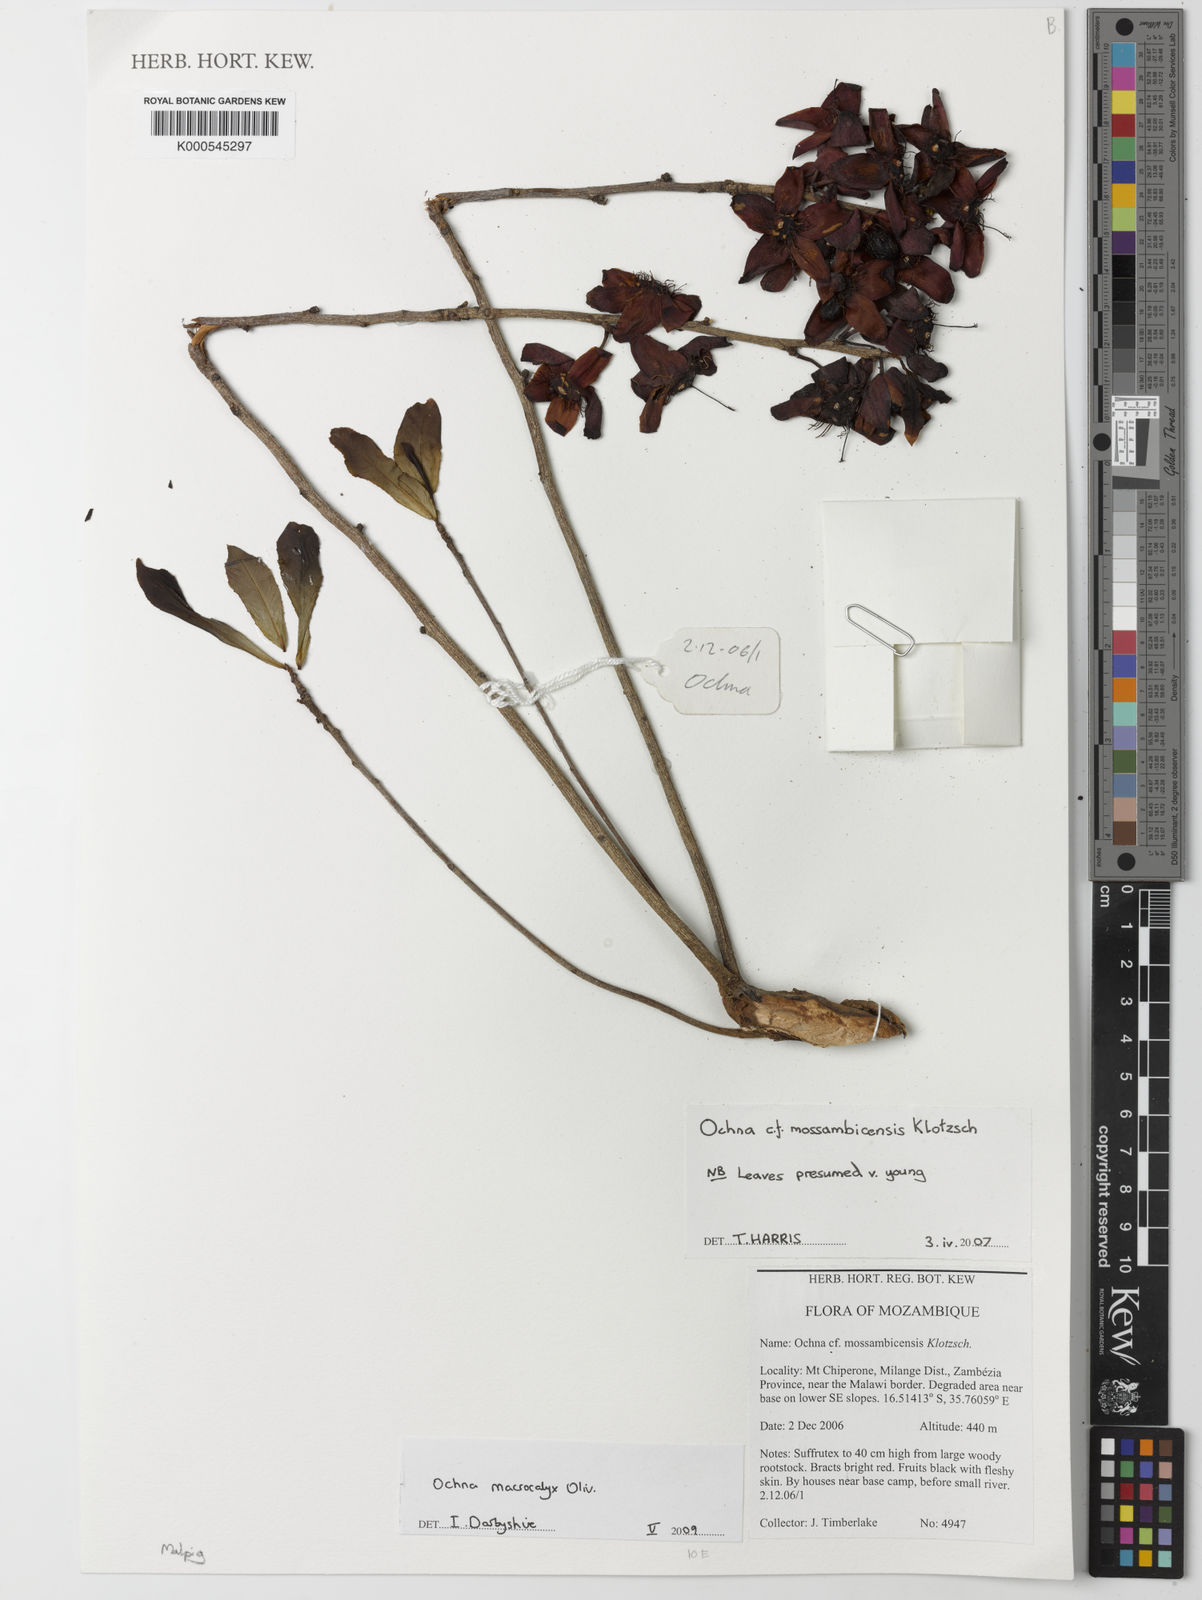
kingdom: Plantae
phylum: Tracheophyta
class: Magnoliopsida
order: Malpighiales
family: Ochnaceae
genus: Ochna
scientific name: Ochna atropurpurea
